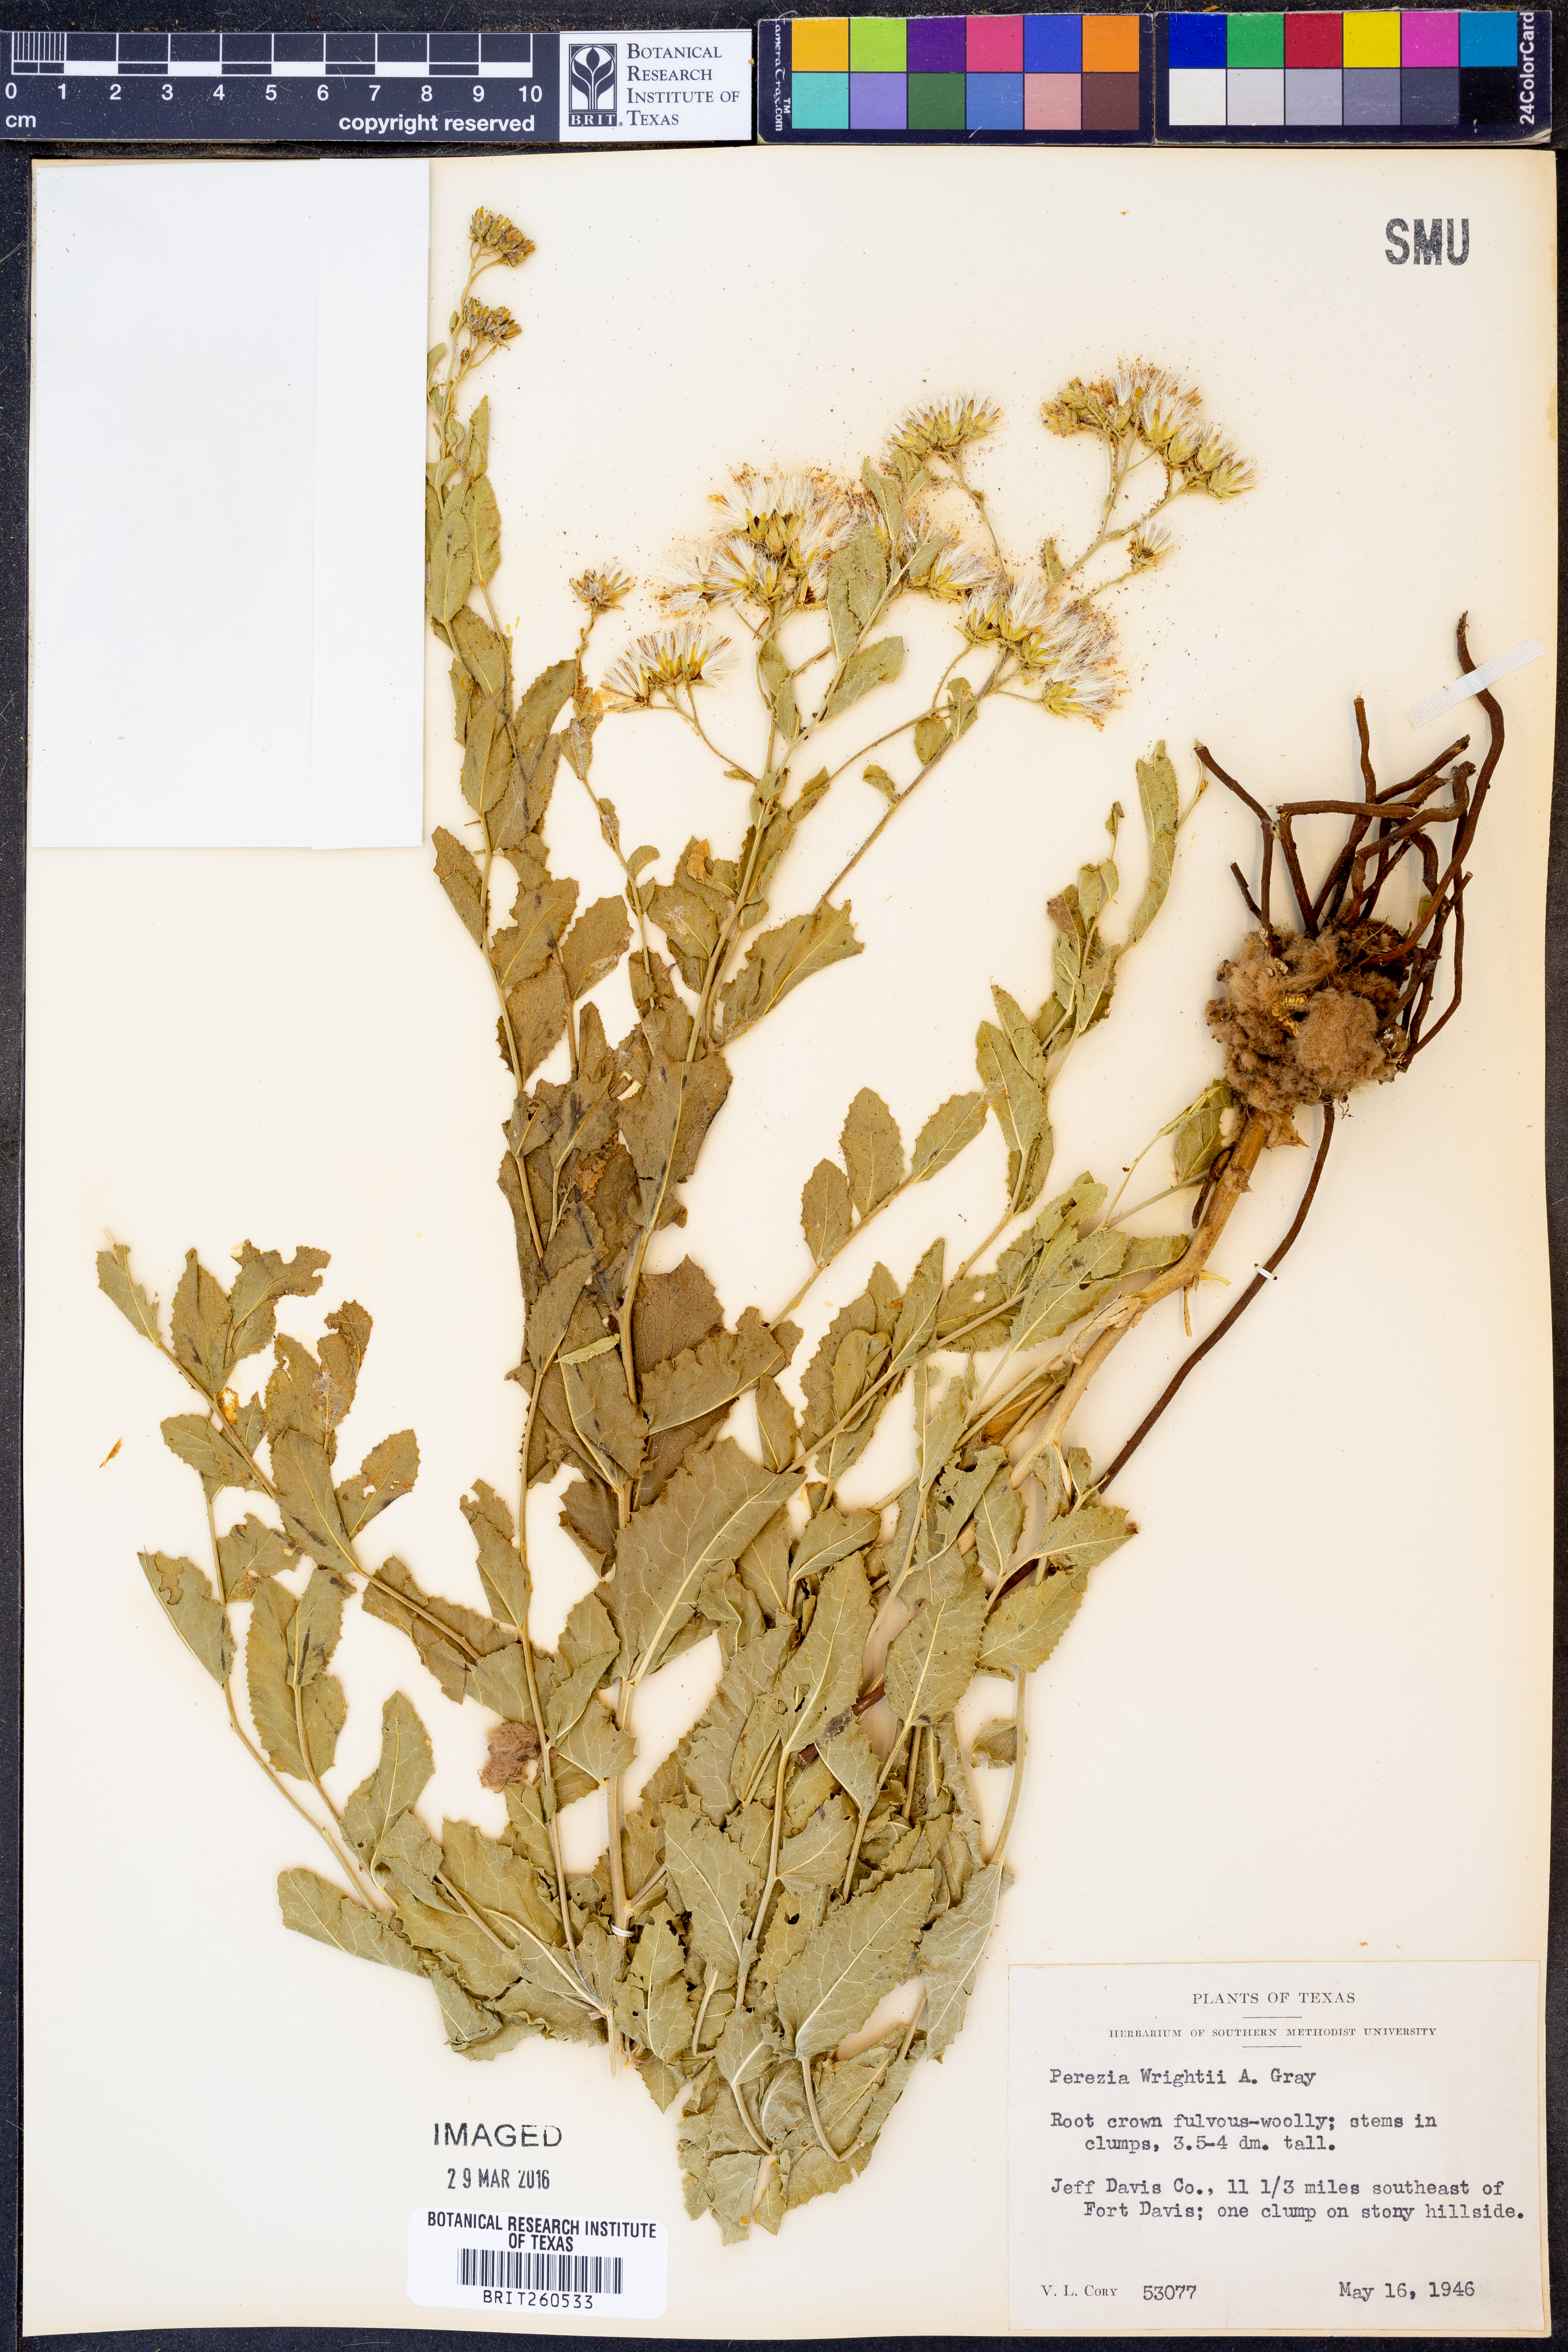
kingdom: Plantae
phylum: Tracheophyta
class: Magnoliopsida
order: Asterales
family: Asteraceae
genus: Acourtia
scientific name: Acourtia wrightii
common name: Brownfoot
